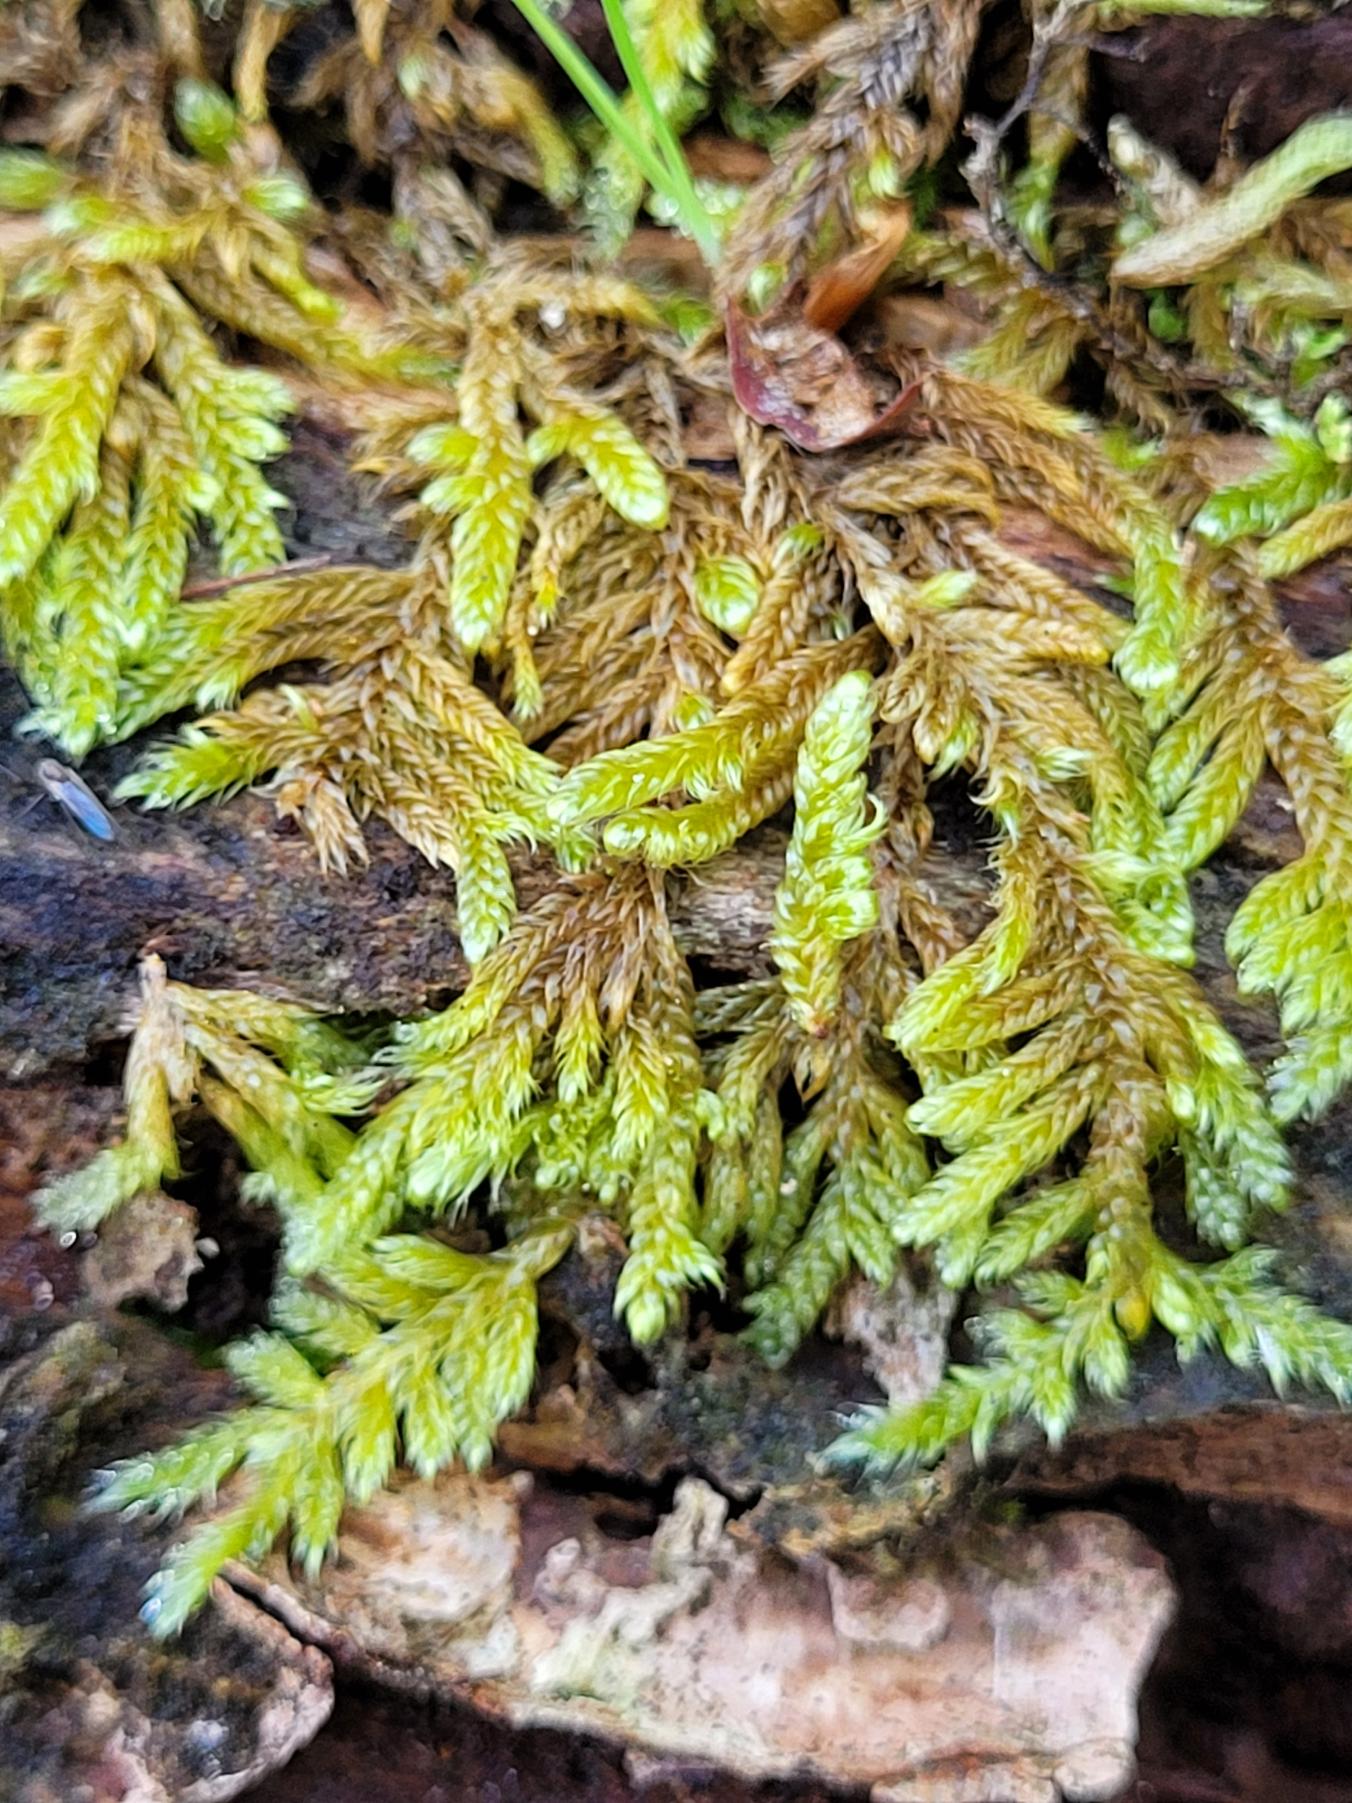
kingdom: Plantae
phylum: Bryophyta
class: Bryopsida
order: Hypnales
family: Hypnaceae
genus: Hypnum
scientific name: Hypnum cupressiforme
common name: Almindelig cypresmos
